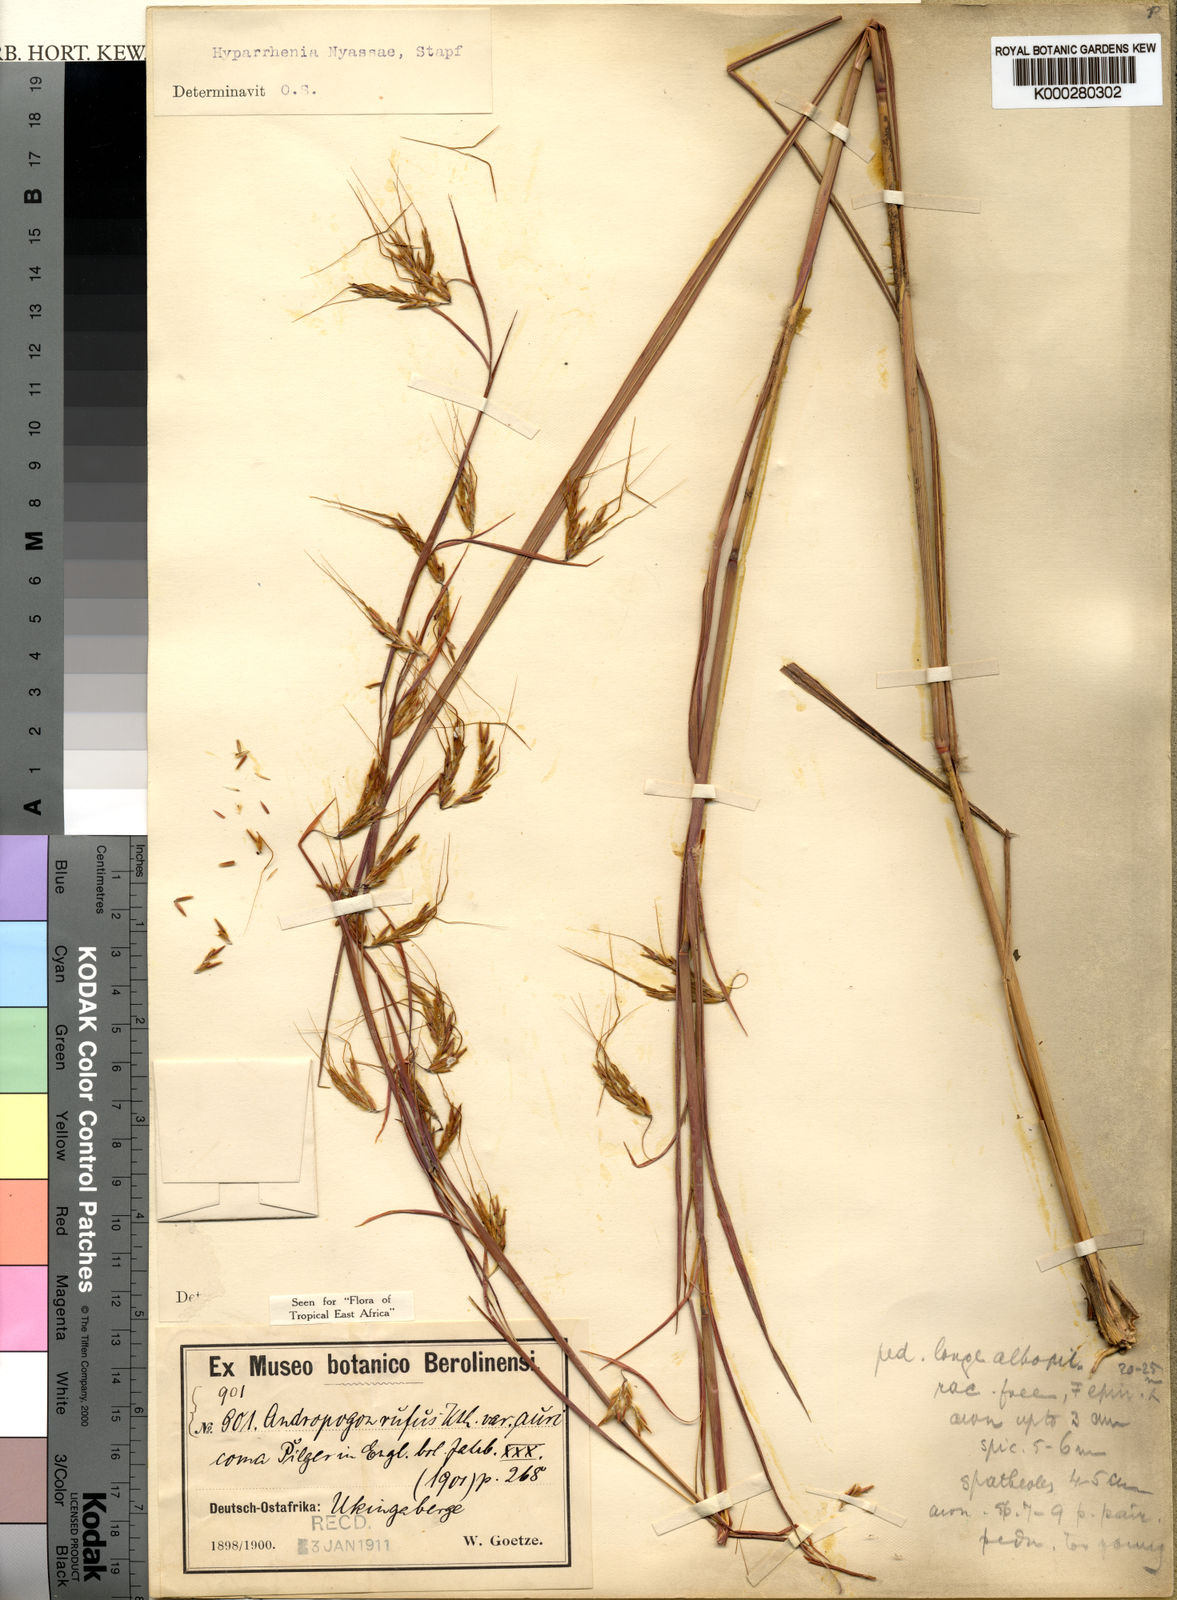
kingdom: Plantae
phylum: Tracheophyta
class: Liliopsida
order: Poales
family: Poaceae
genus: Hyparrhenia
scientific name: Hyparrhenia nyassae
